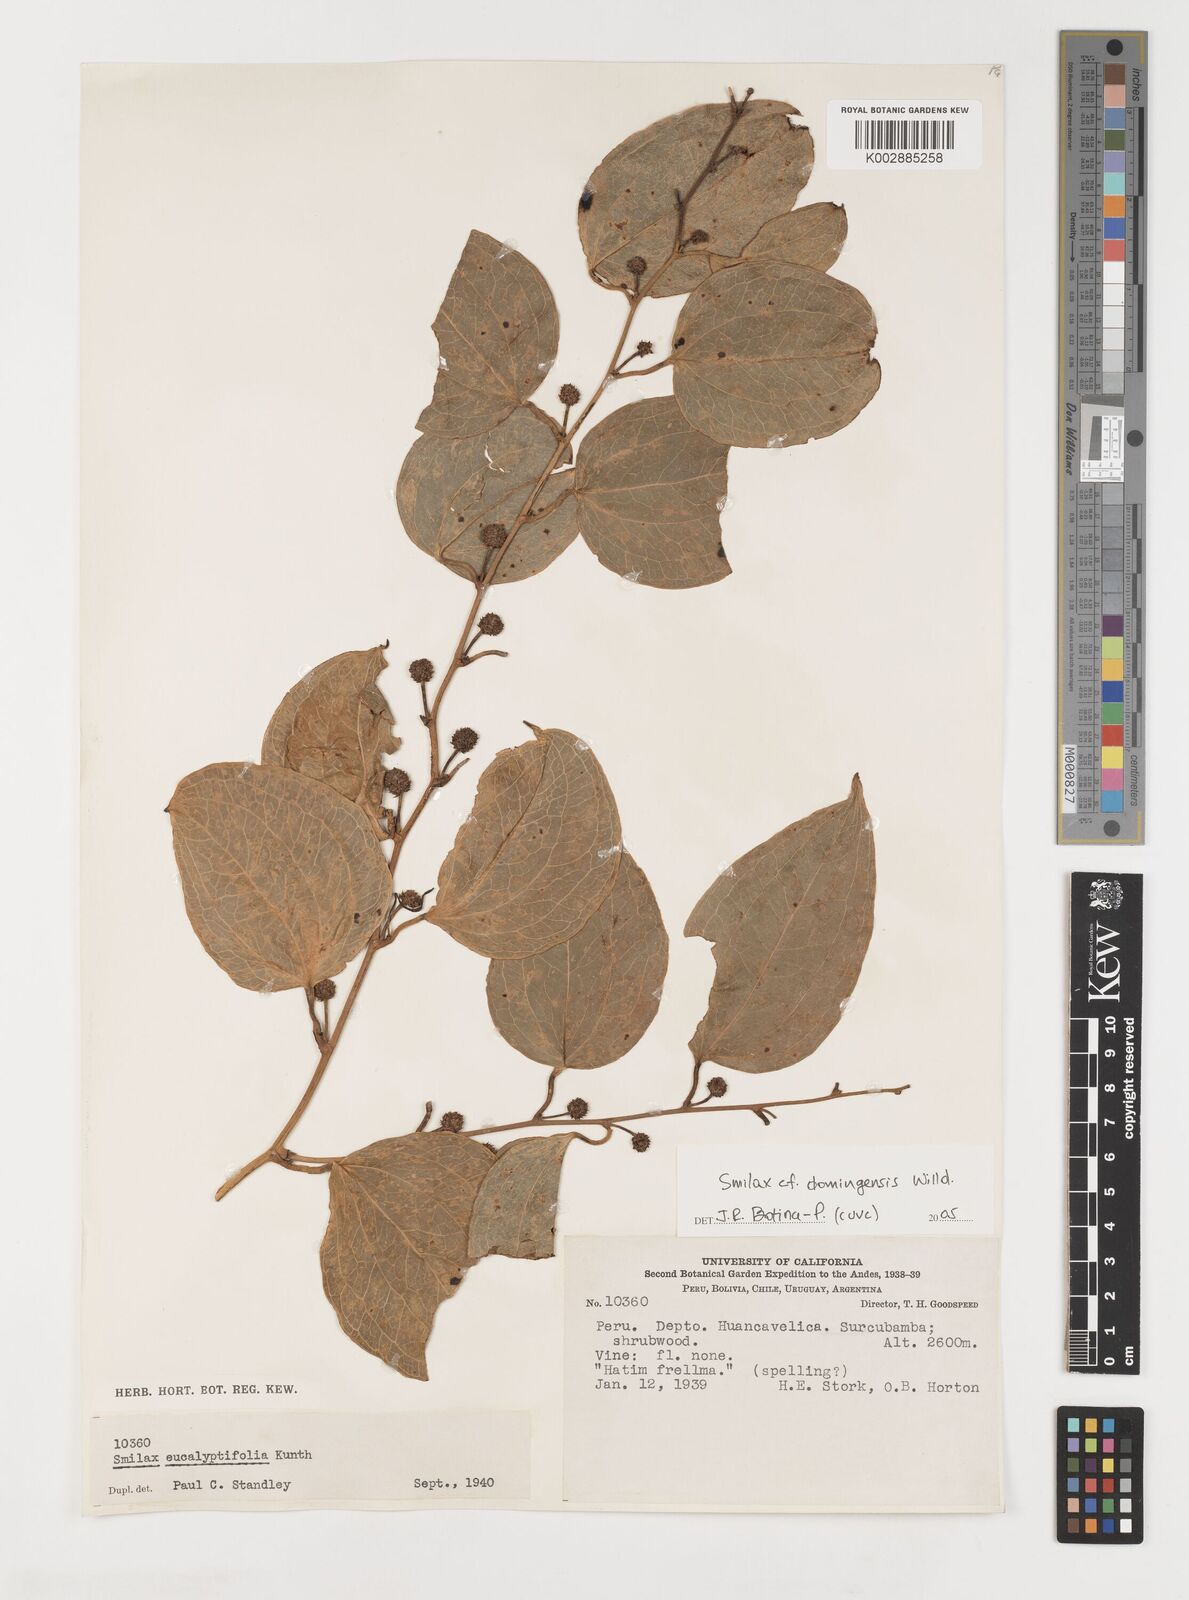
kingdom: Plantae
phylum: Tracheophyta
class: Liliopsida
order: Liliales
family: Smilacaceae
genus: Smilax
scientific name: Smilax domingensis
